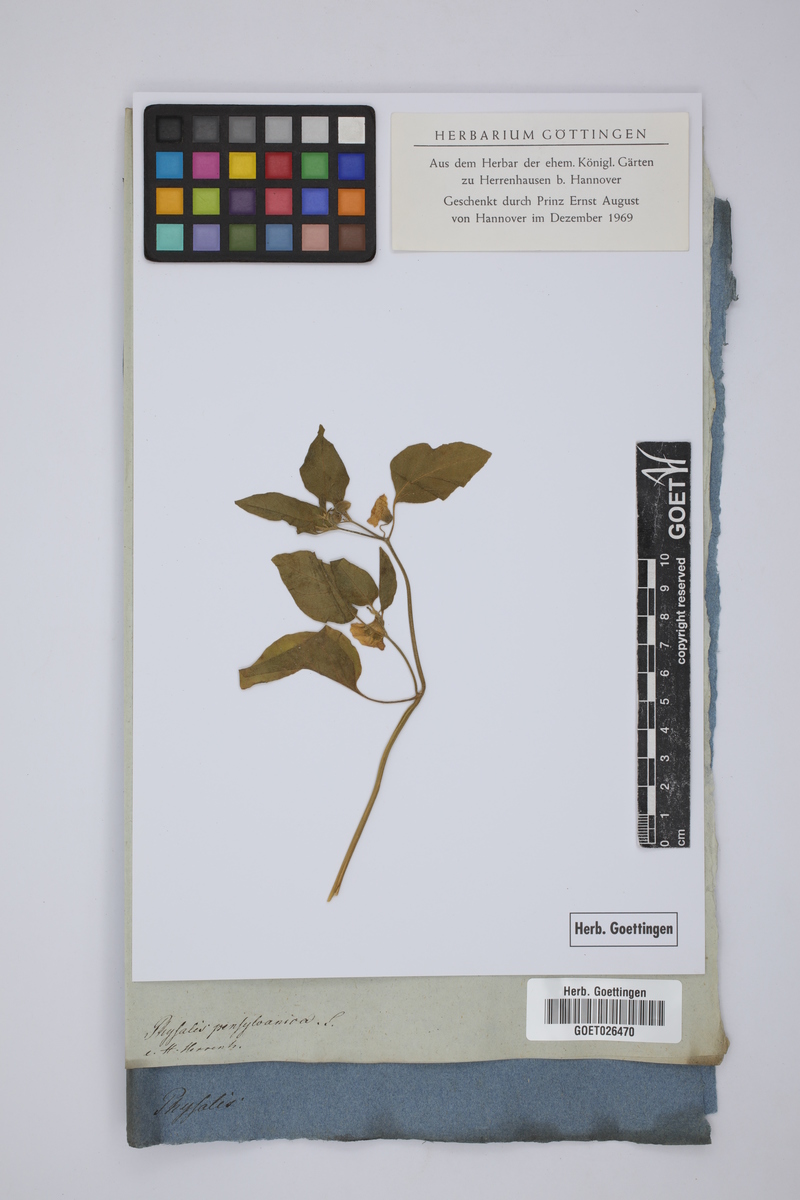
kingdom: Plantae
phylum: Tracheophyta
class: Magnoliopsida
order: Solanales
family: Solanaceae
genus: Physalis
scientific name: Physalis viscosa
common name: Stellate ground-cherry
